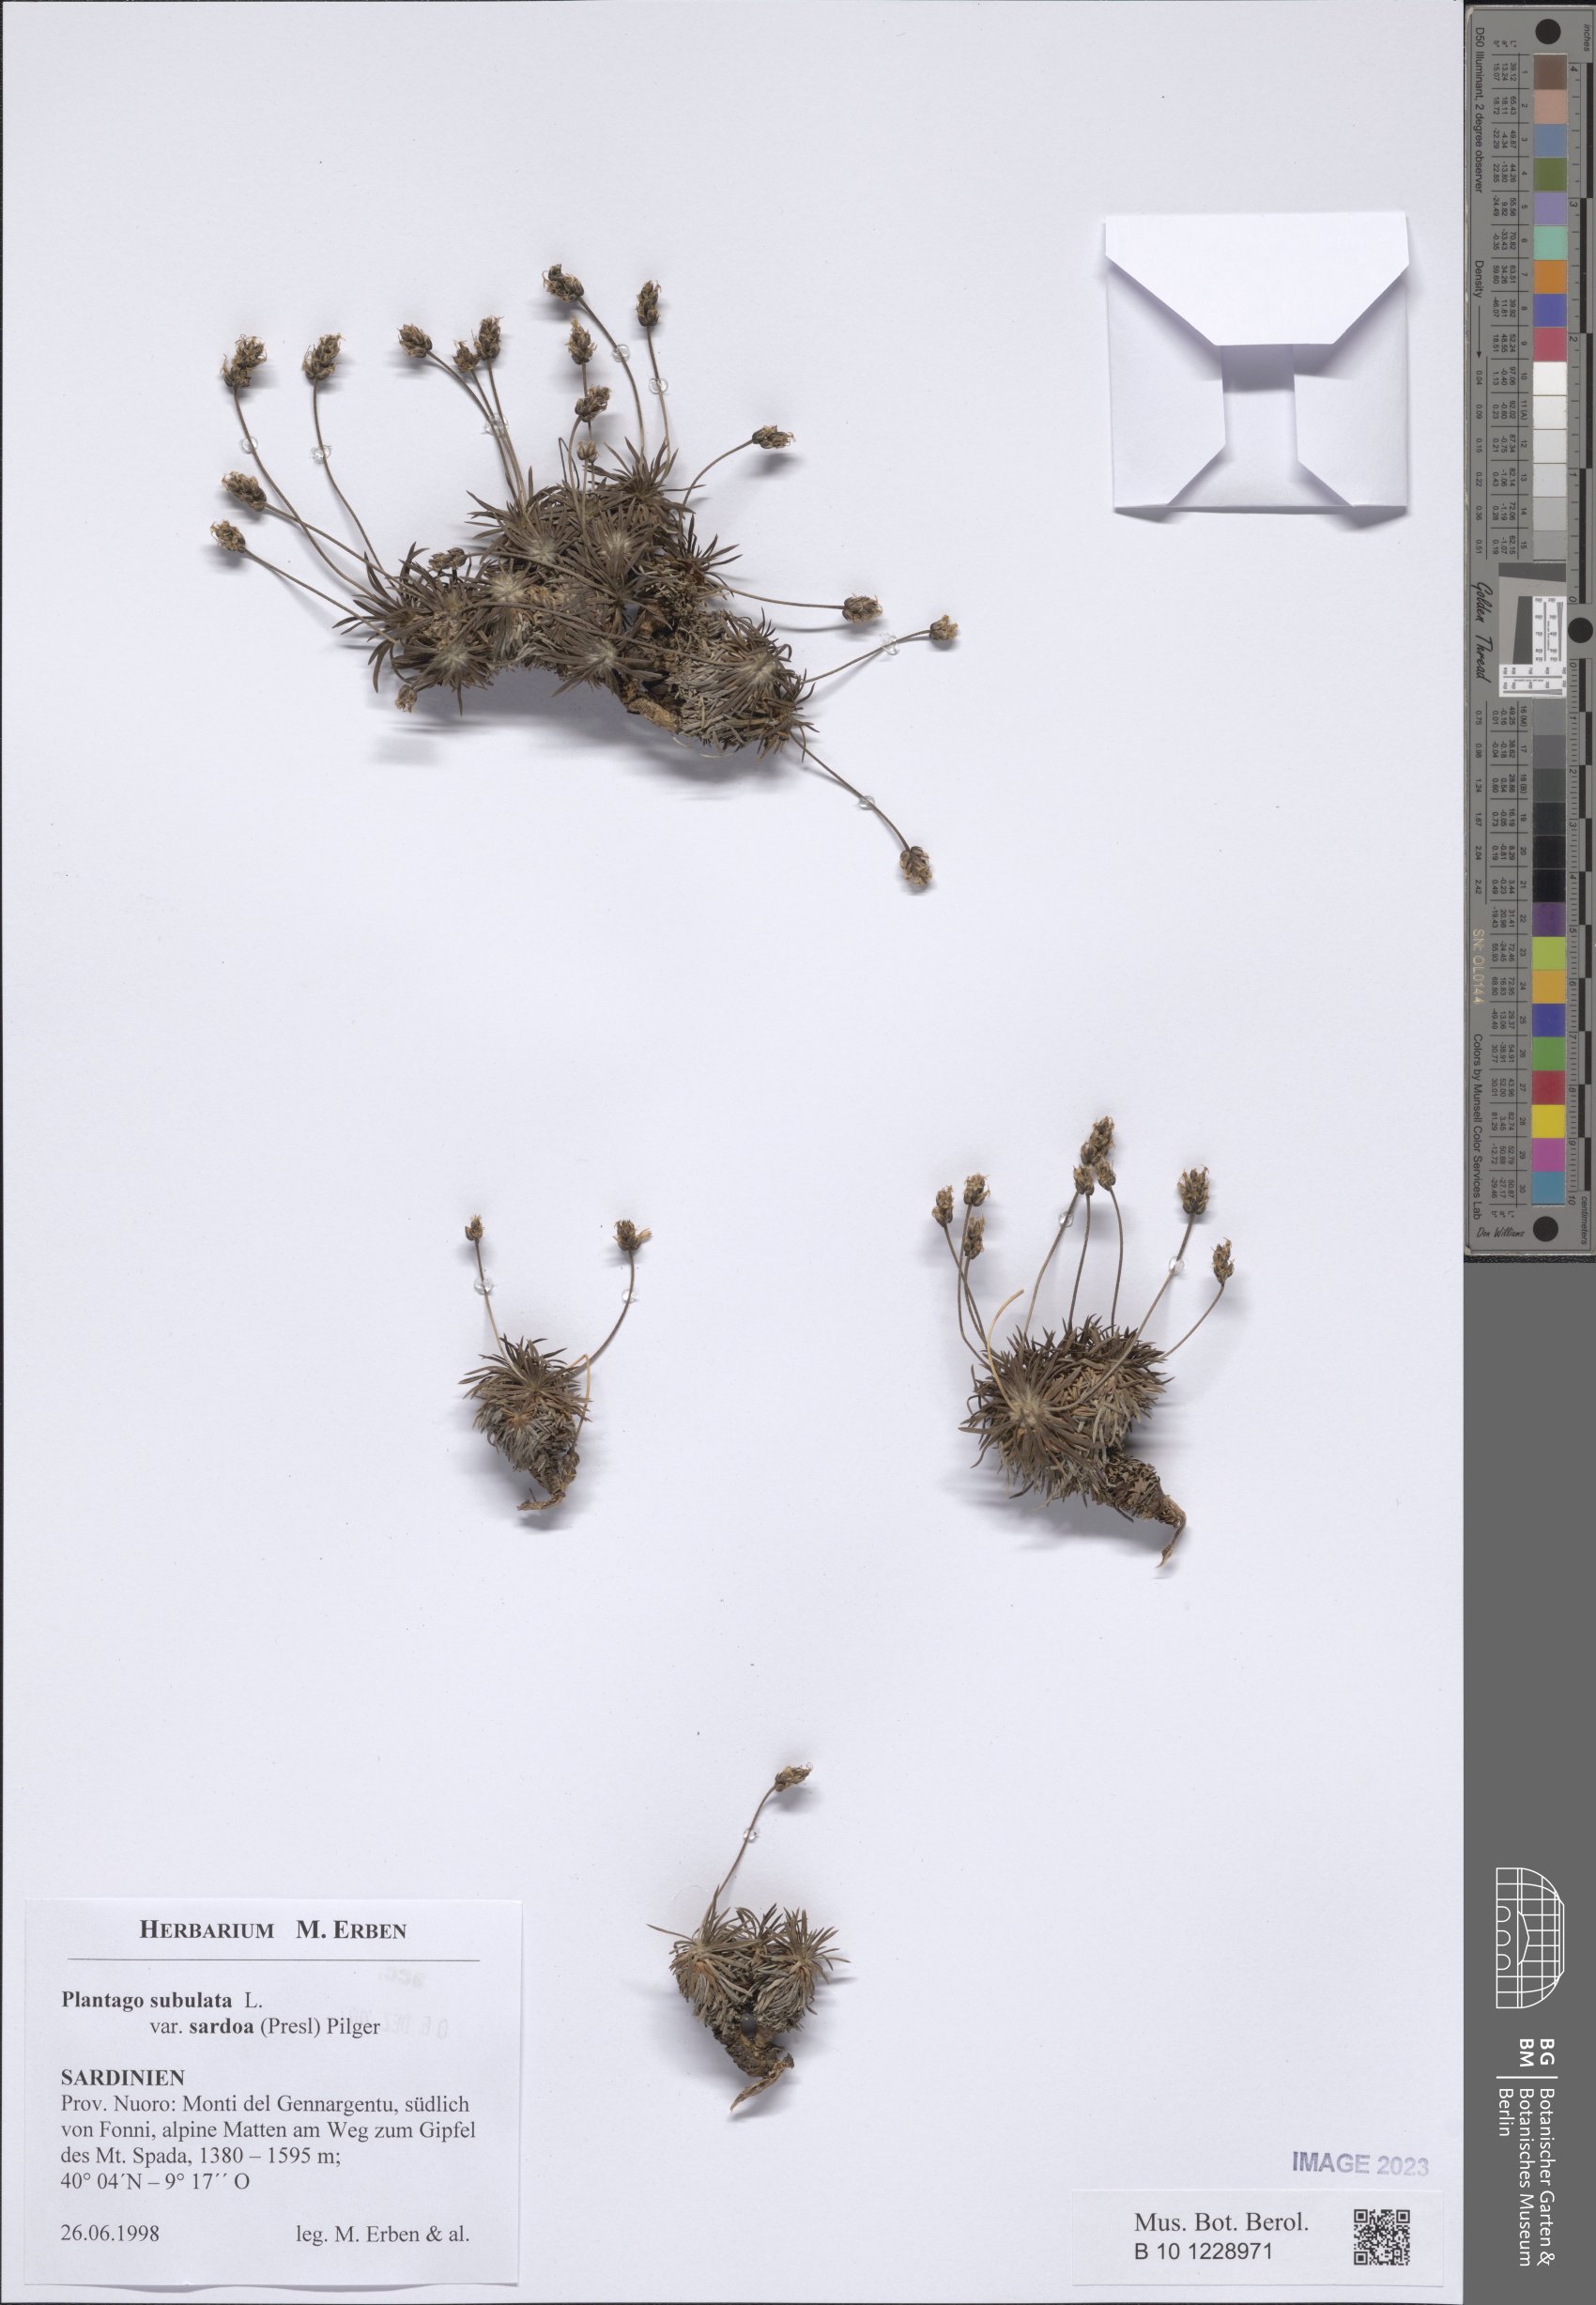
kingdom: Plantae
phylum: Tracheophyta
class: Magnoliopsida
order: Lamiales
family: Plantaginaceae
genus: Plantago
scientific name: Plantago subulata
